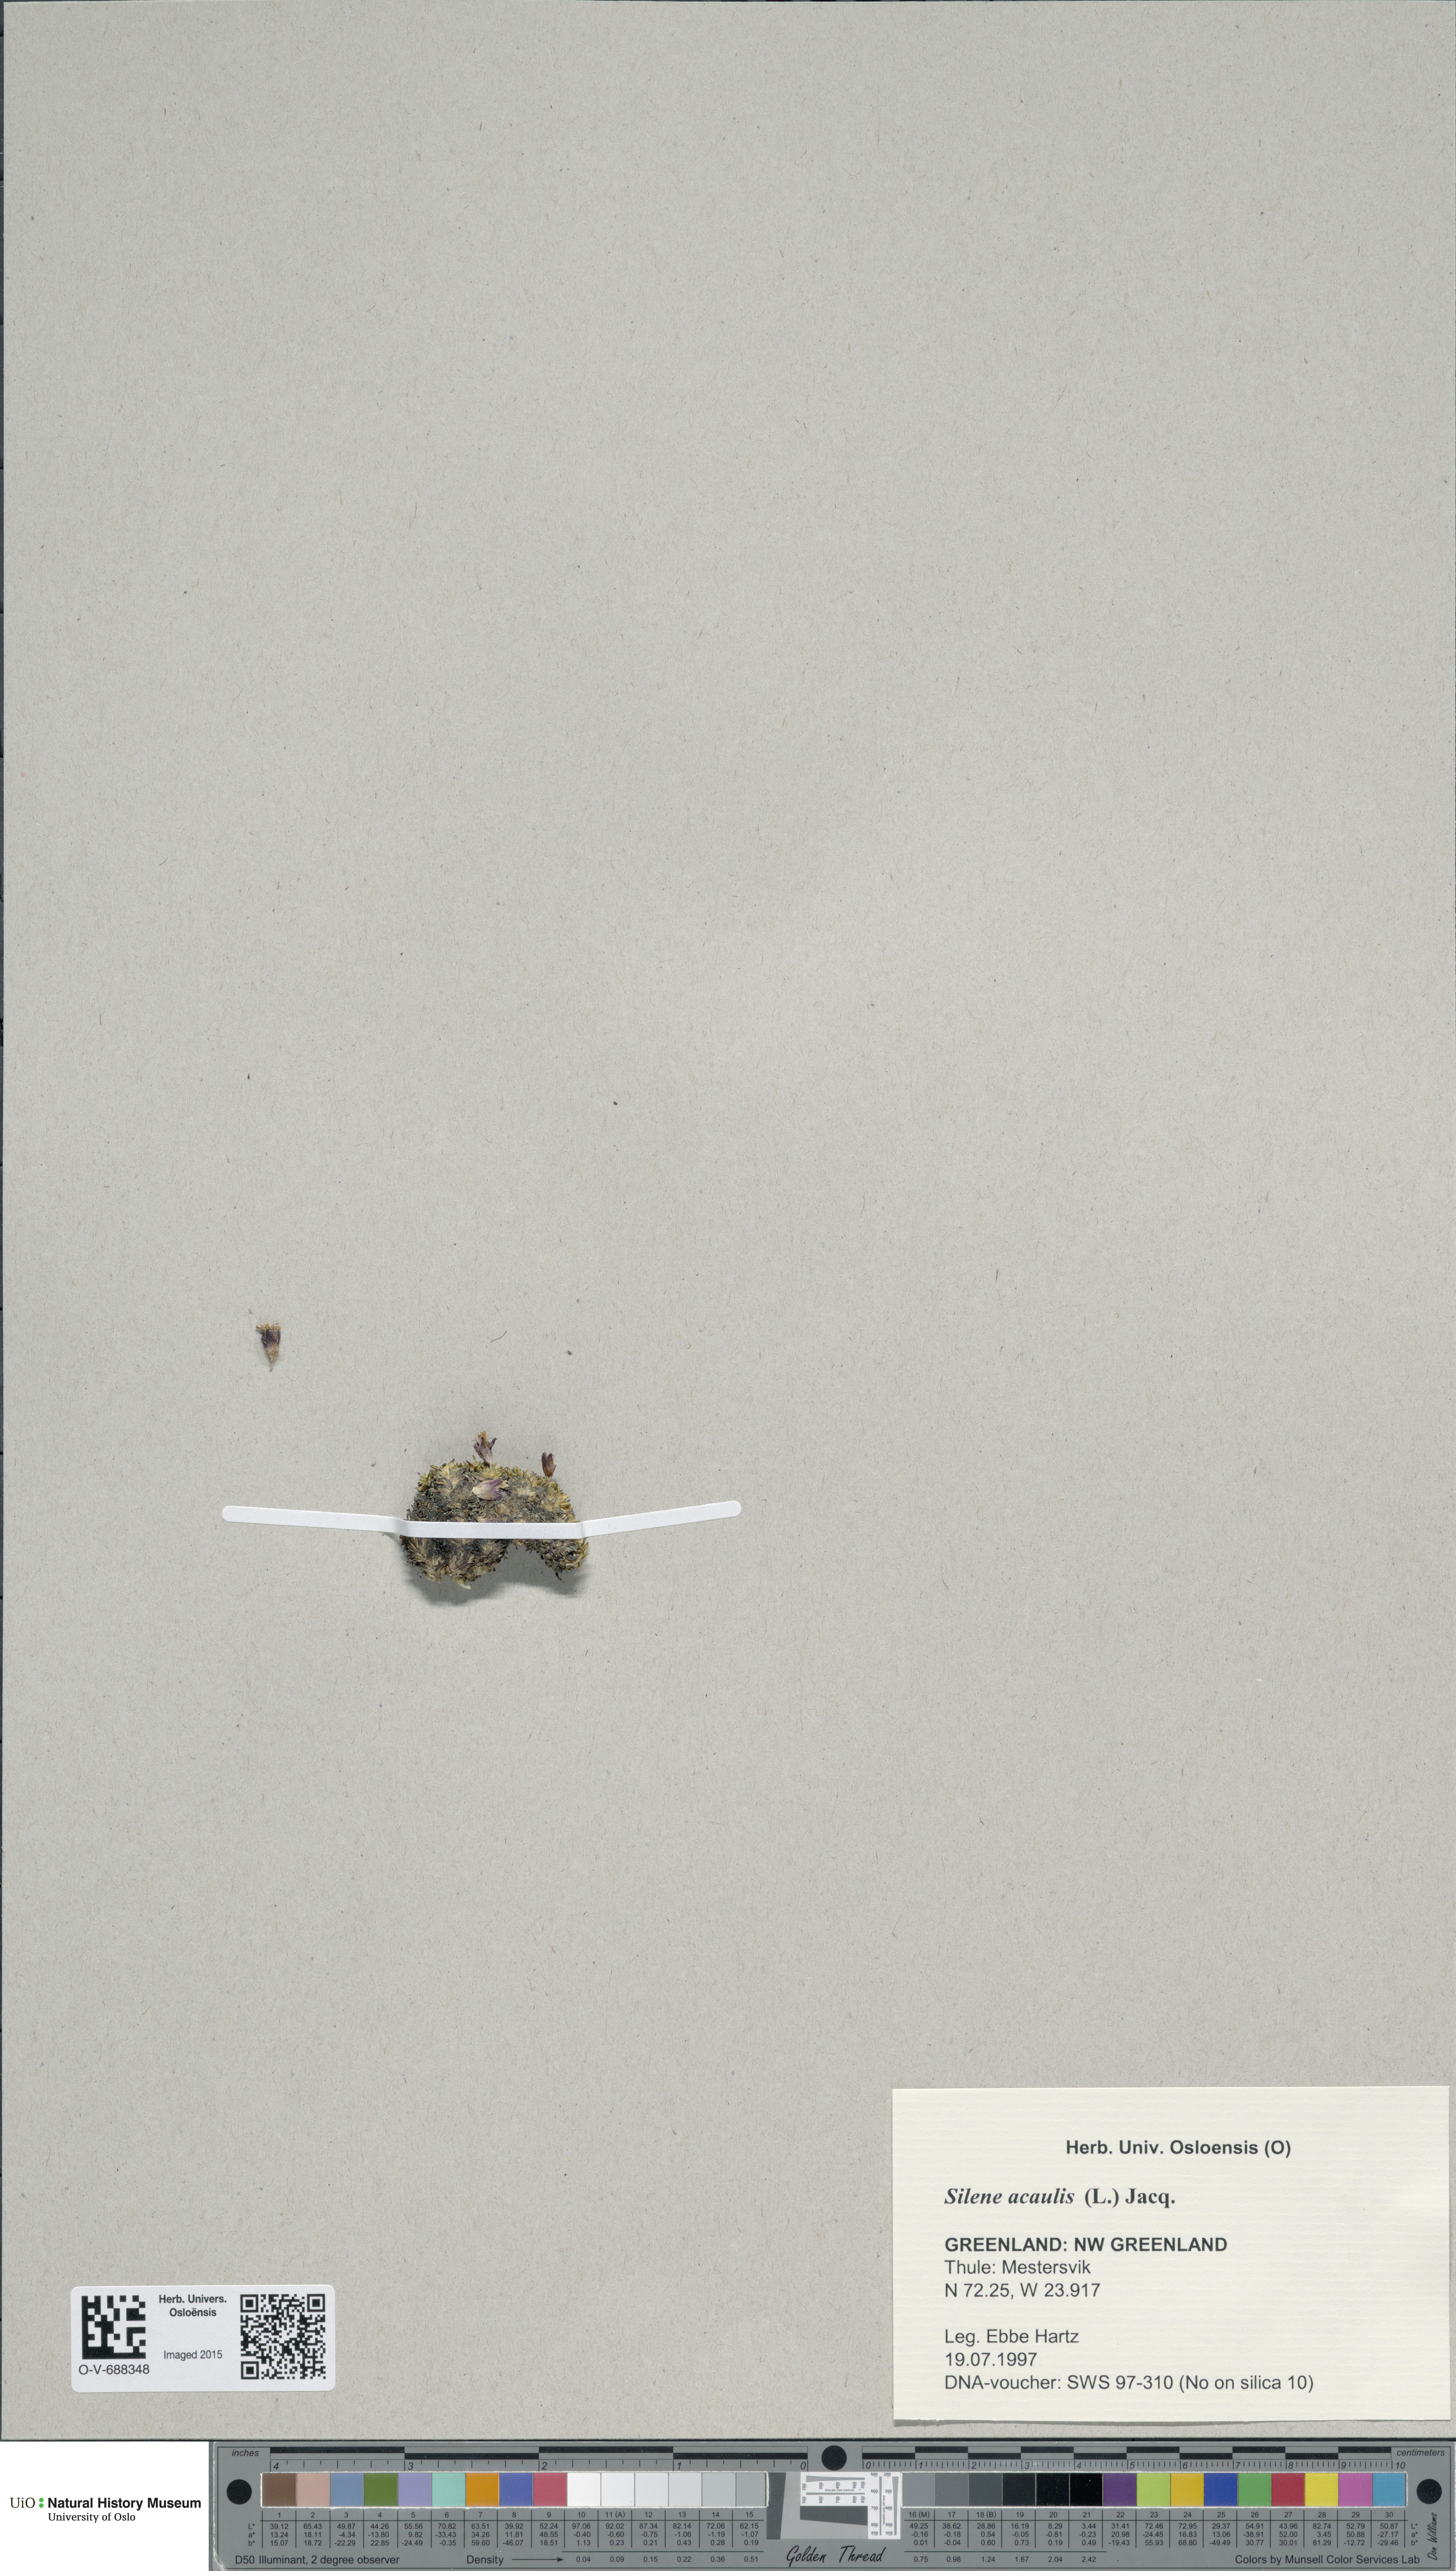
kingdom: Plantae
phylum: Tracheophyta
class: Magnoliopsida
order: Caryophyllales
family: Caryophyllaceae
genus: Silene
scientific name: Silene acaulis
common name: Moss campion
